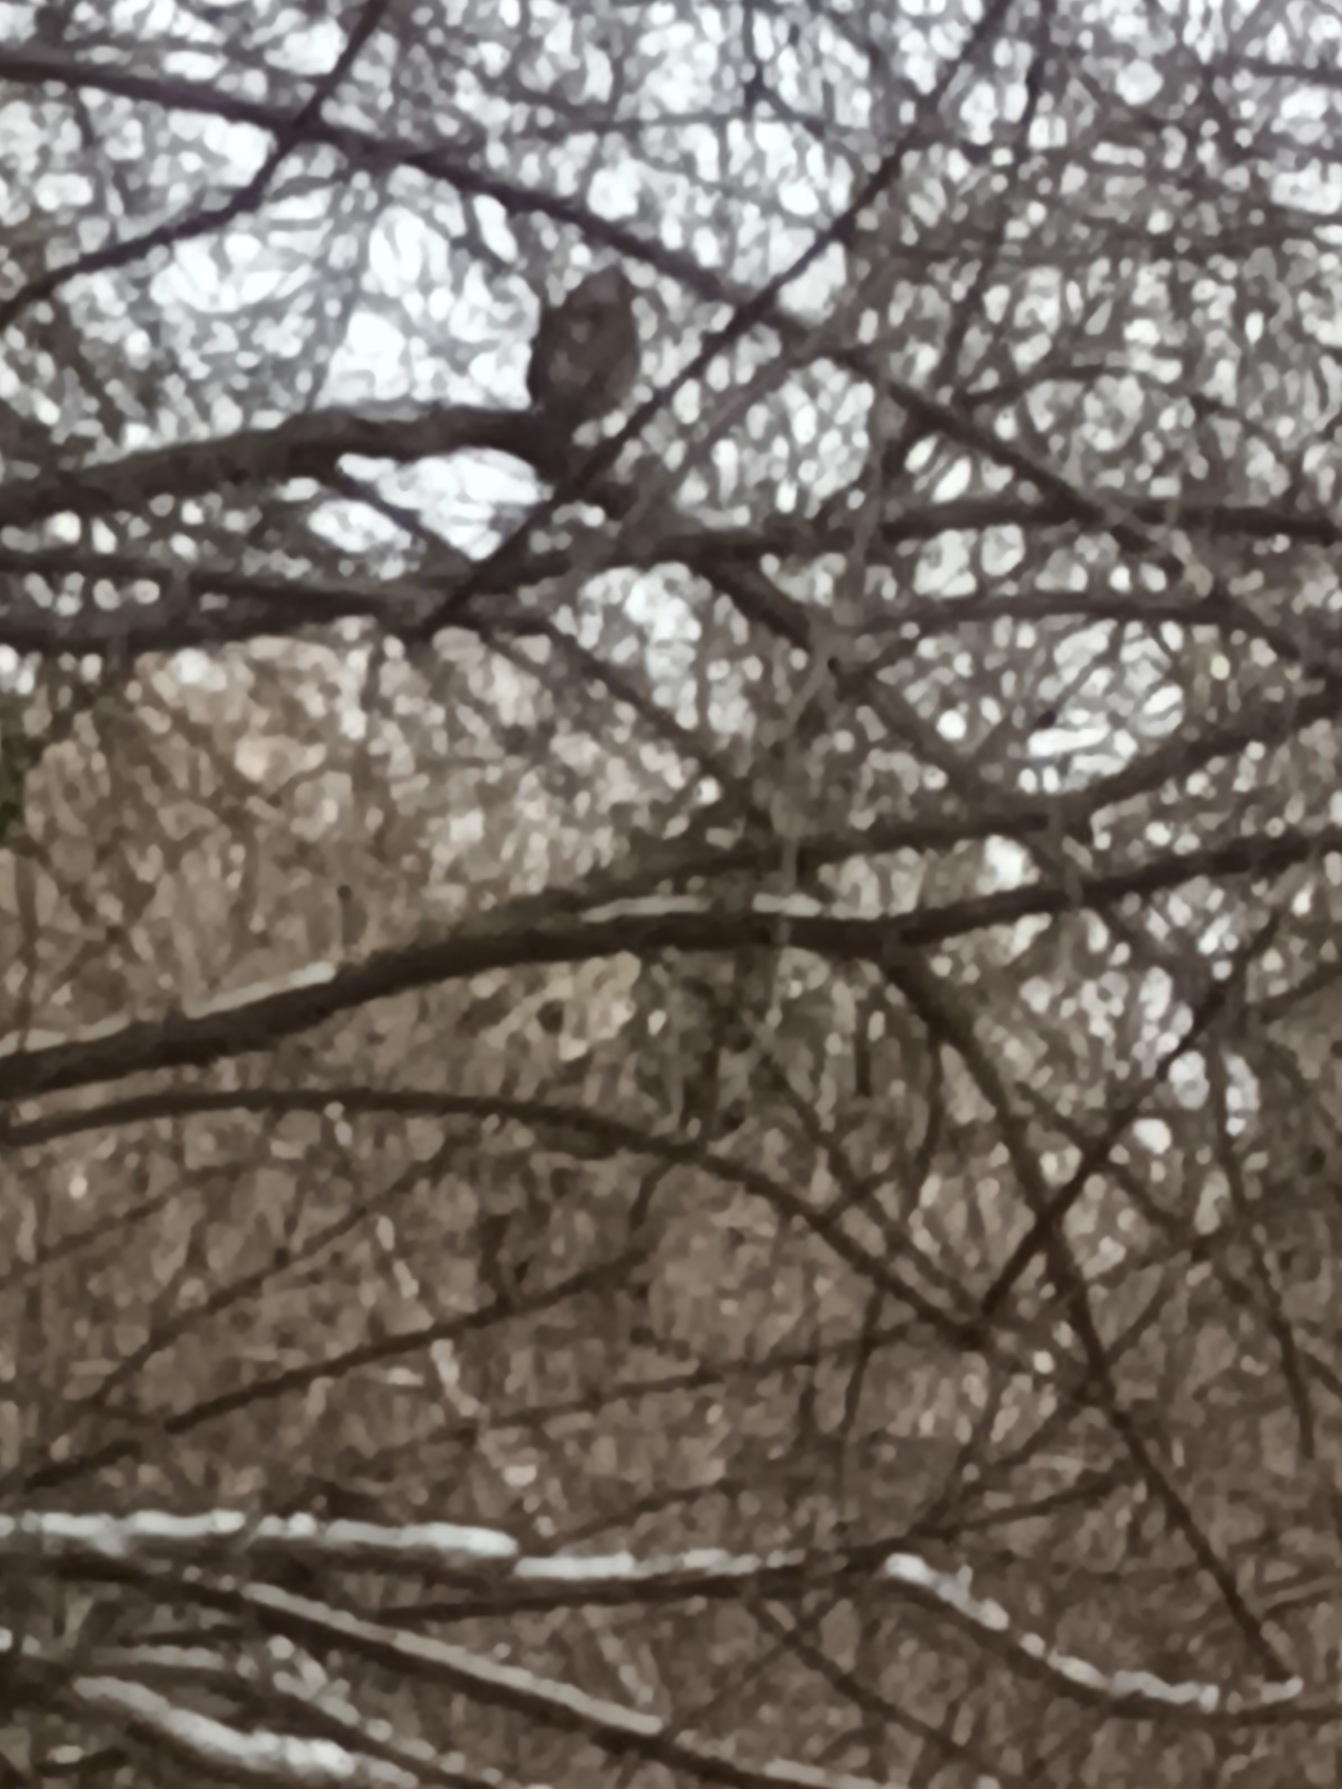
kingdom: Animalia
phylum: Chordata
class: Aves
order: Passeriformes
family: Turdidae
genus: Turdus
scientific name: Turdus pilaris
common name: Sjagger
